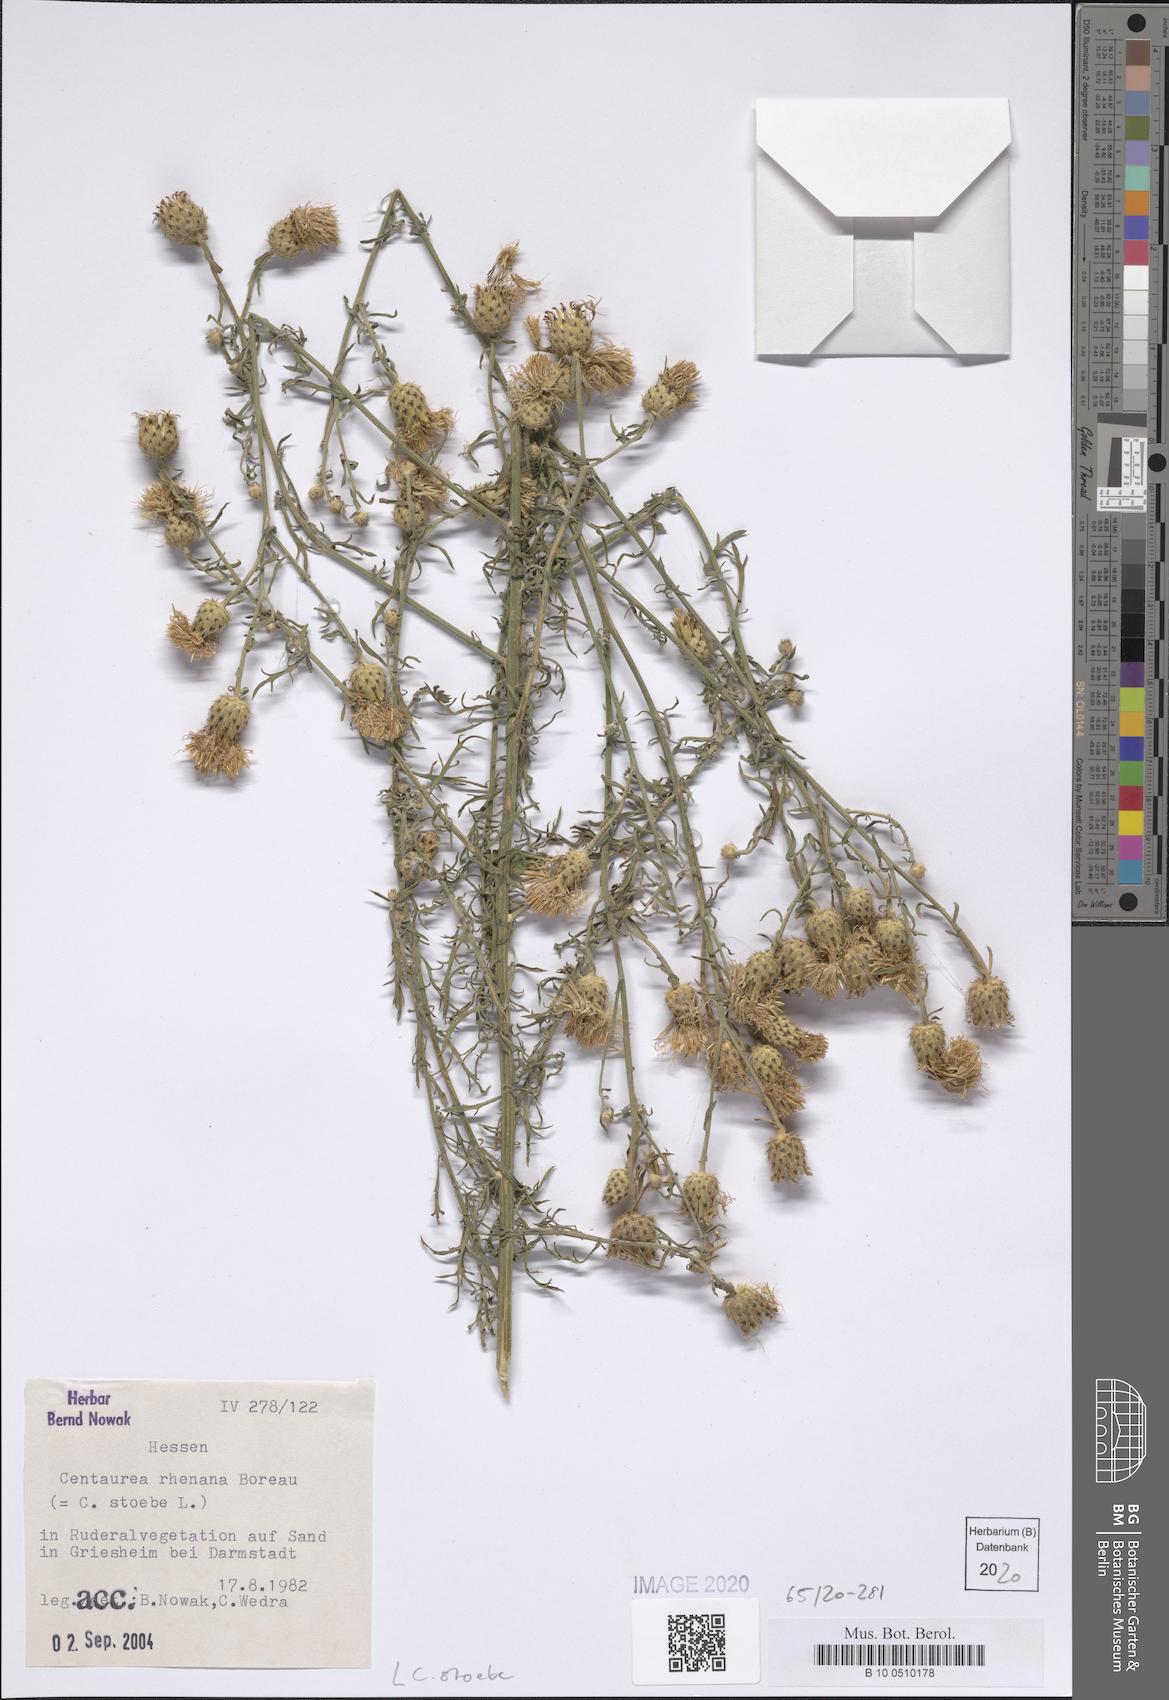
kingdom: Plantae
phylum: Tracheophyta
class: Magnoliopsida
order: Asterales
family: Asteraceae
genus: Centaurea
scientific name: Centaurea stoebe
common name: Spotted knapweed
